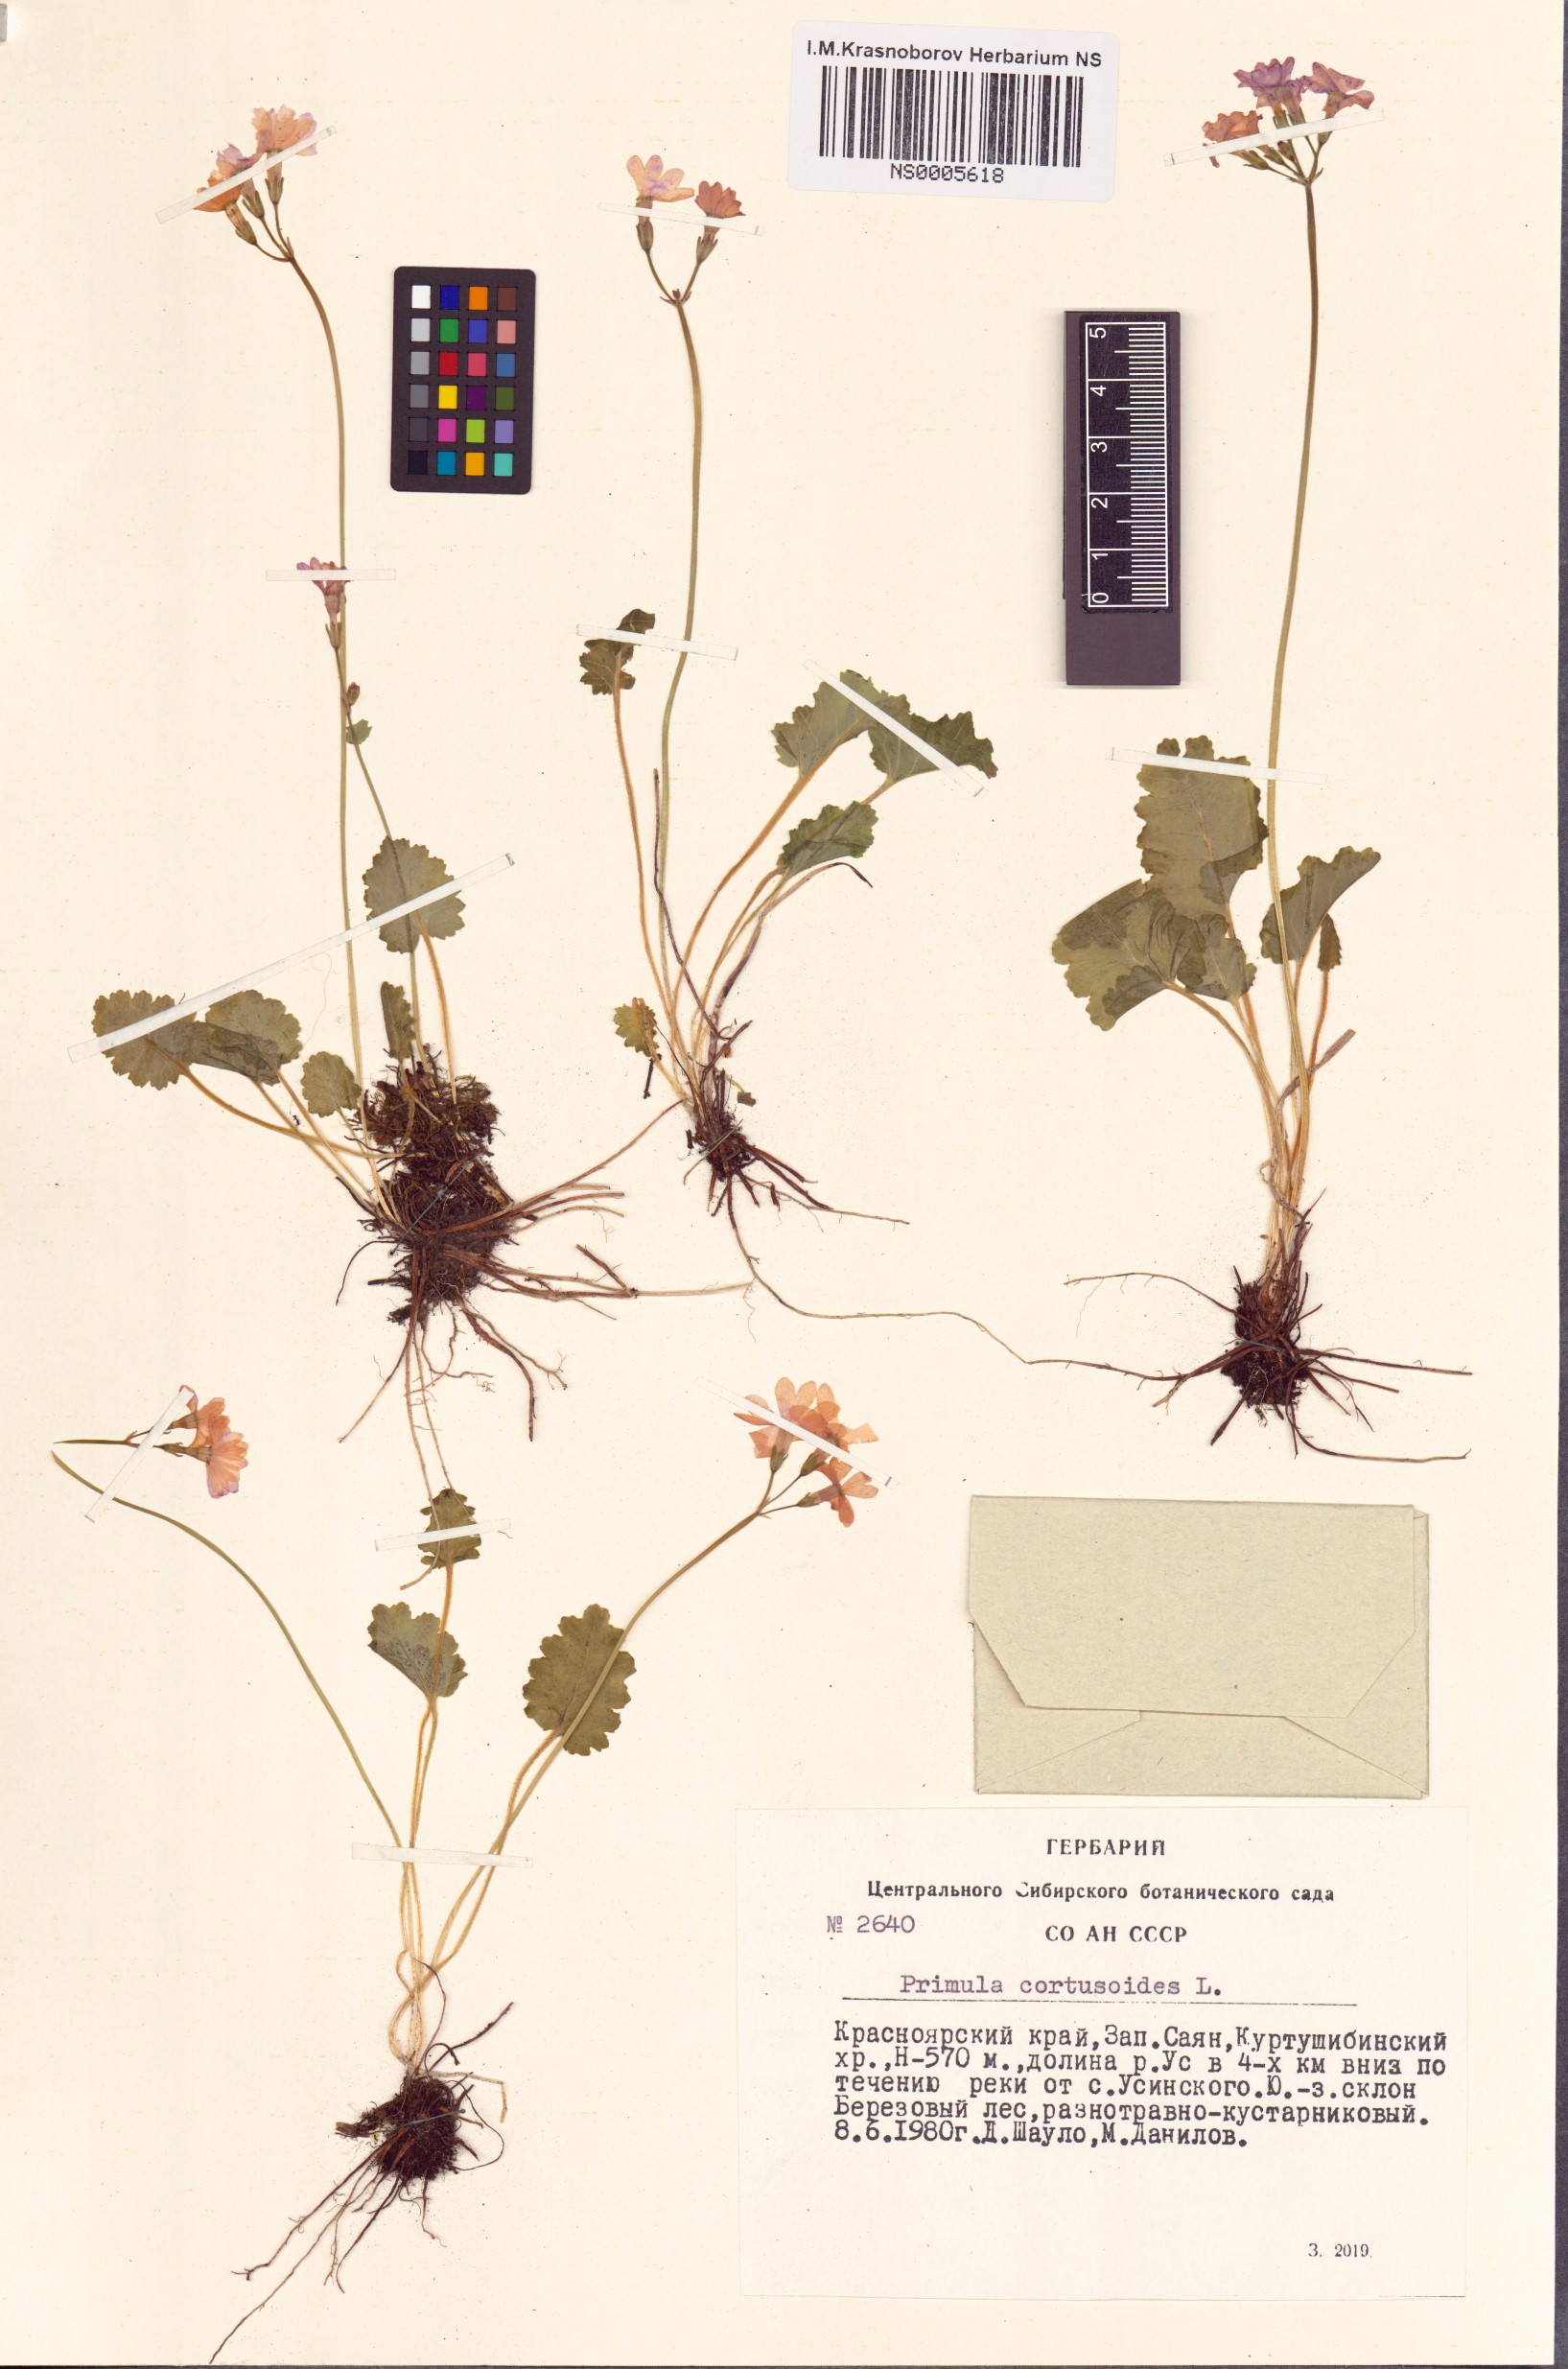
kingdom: Plantae
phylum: Tracheophyta
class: Magnoliopsida
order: Ericales
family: Primulaceae
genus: Primula
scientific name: Primula cortusoides
